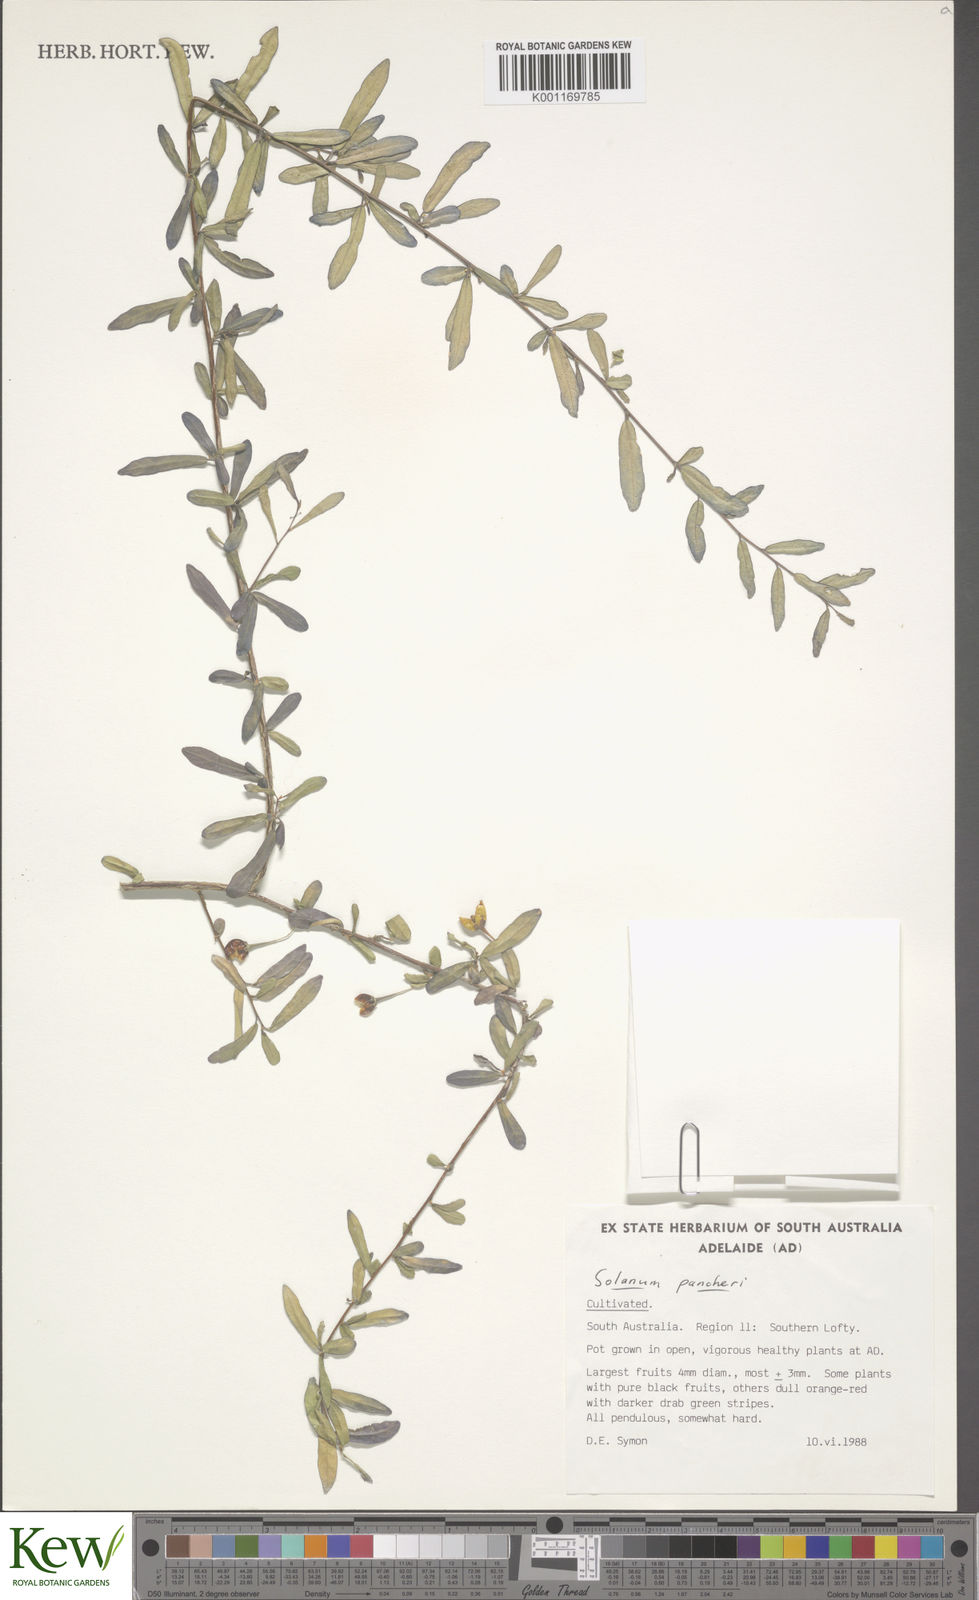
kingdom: Plantae
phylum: Tracheophyta
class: Magnoliopsida
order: Solanales
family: Solanaceae
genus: Solanum
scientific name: Solanum pancheri
